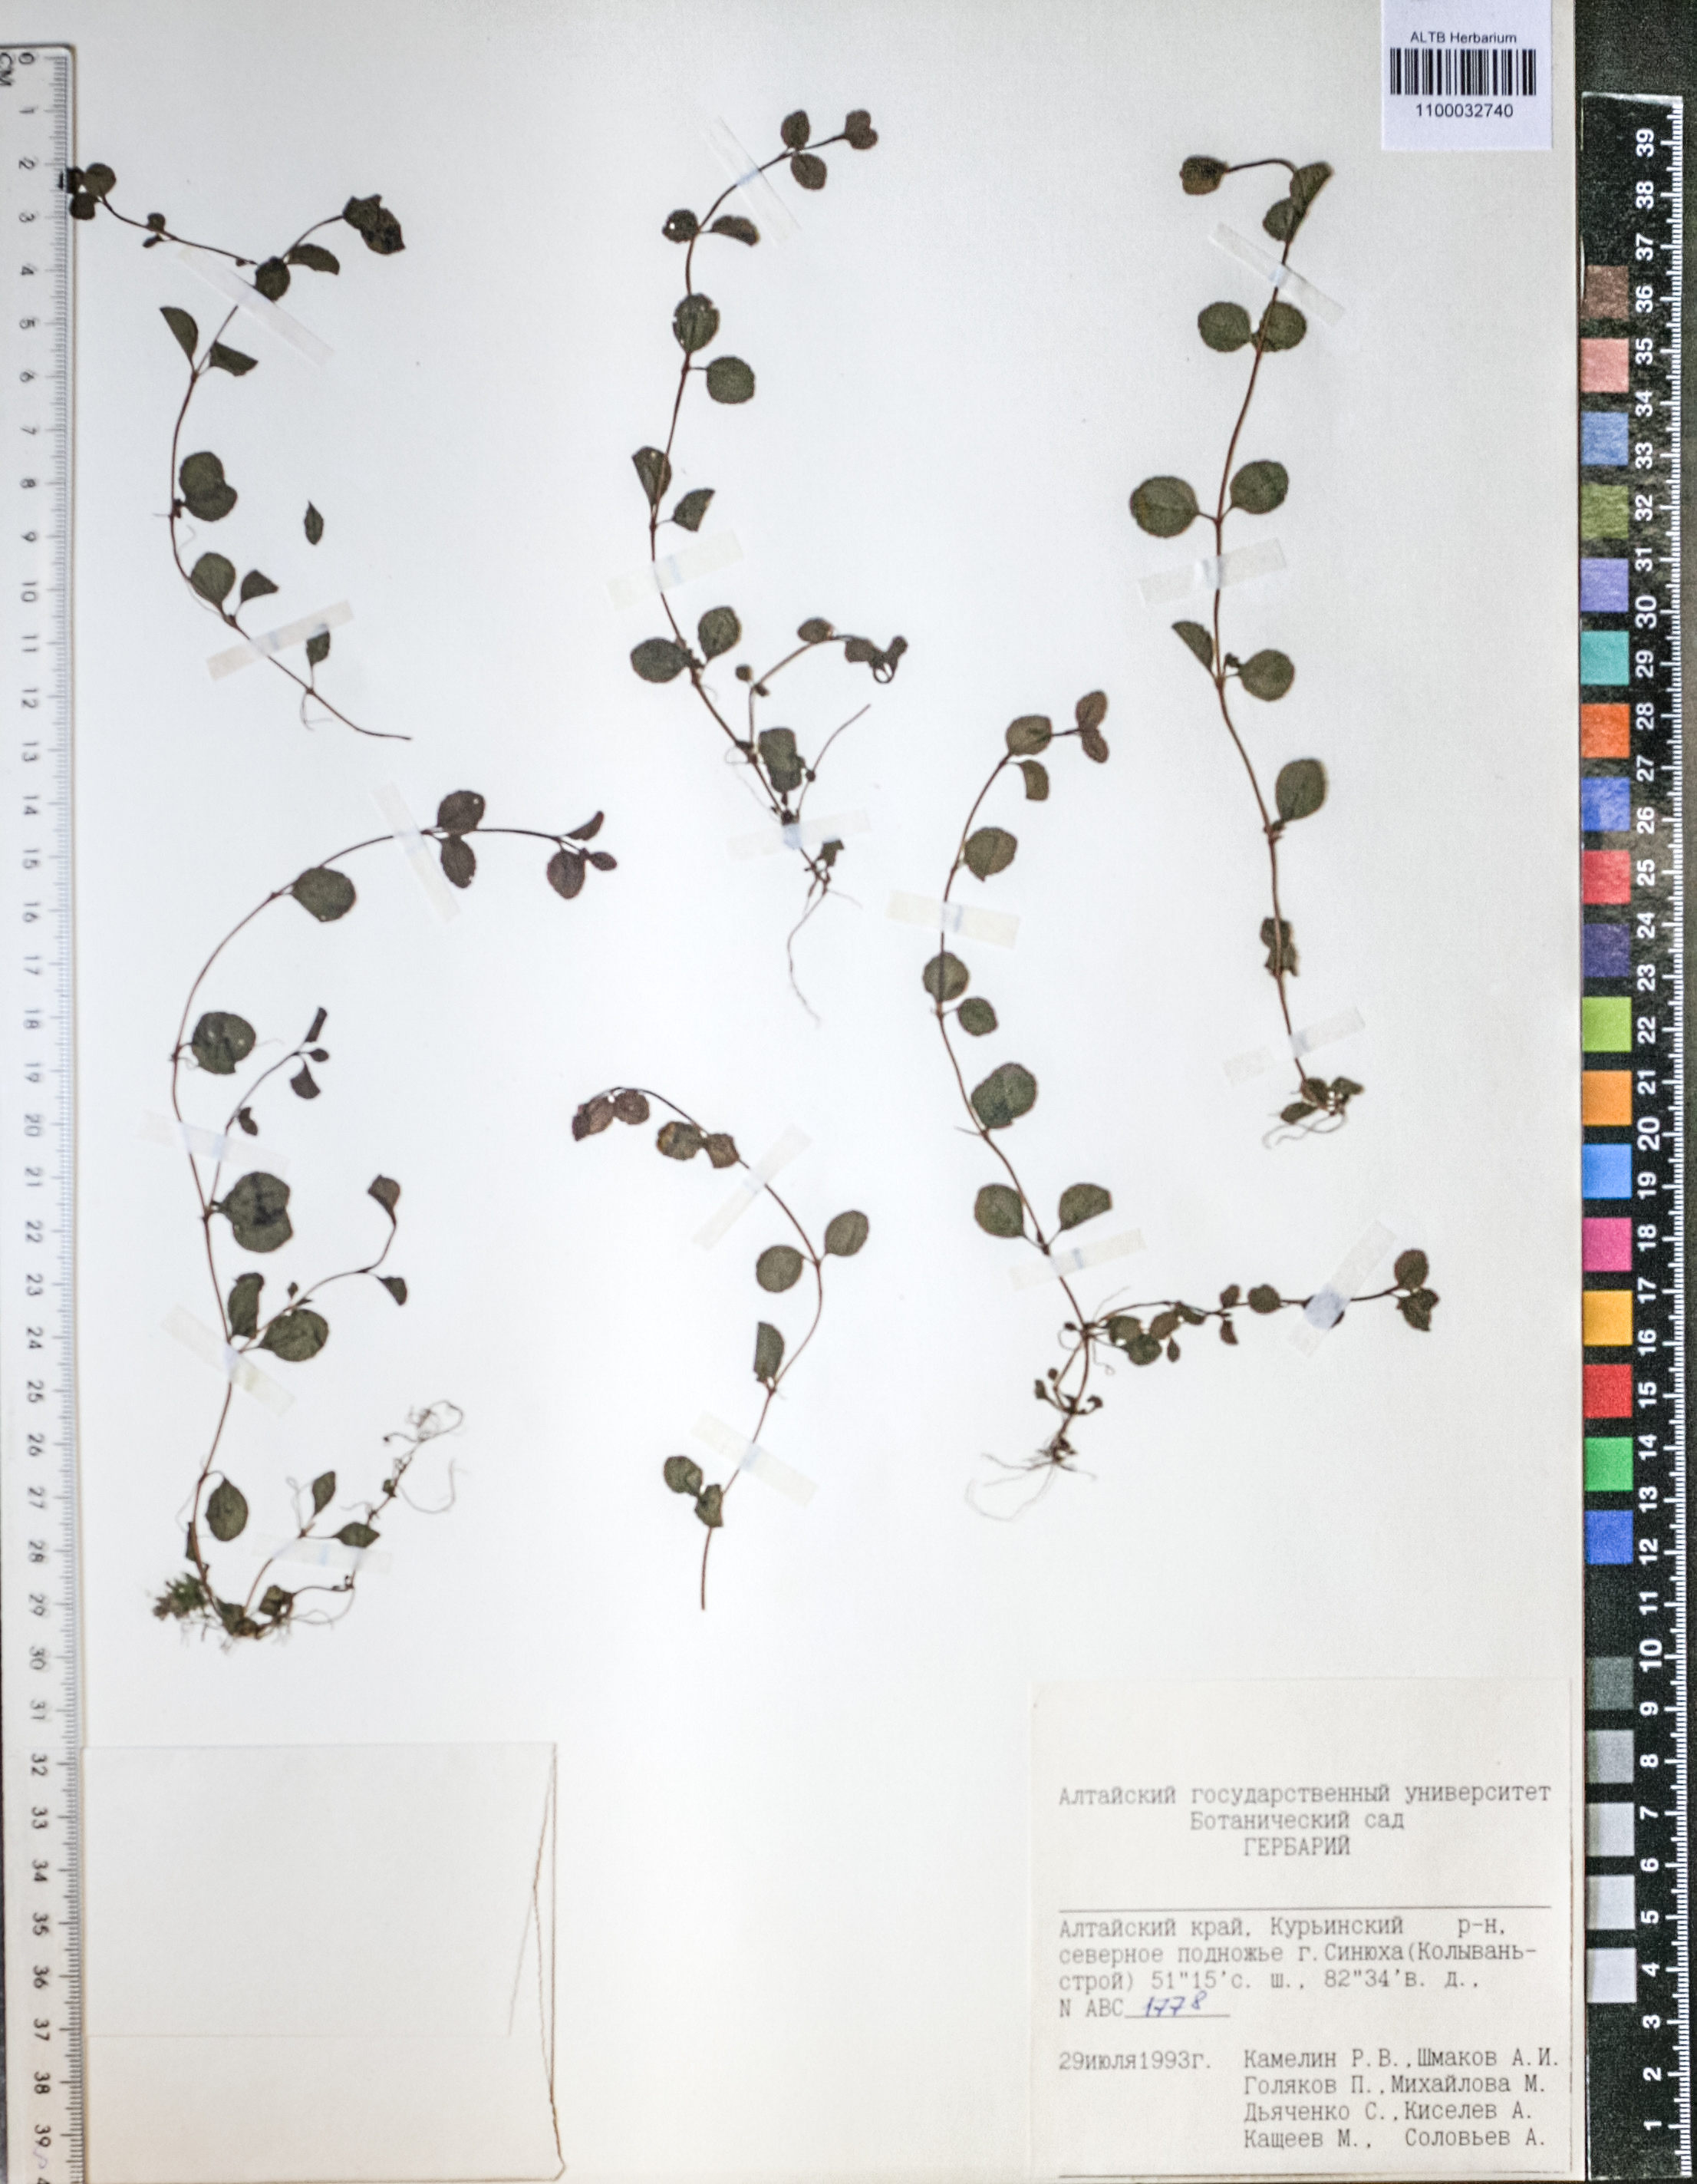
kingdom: Plantae
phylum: Tracheophyta
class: Magnoliopsida
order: Lamiales
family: Plantaginaceae
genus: Veronica
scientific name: Veronica serpyllifolia
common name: Thyme-leaved speedwell
